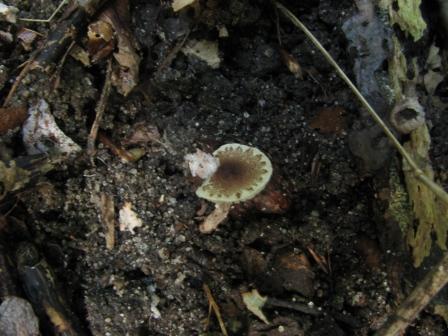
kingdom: Fungi
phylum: Basidiomycota
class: Agaricomycetes
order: Agaricales
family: Agaricaceae
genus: Lepiota
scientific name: Lepiota echinella
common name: finskællet parasolhat
